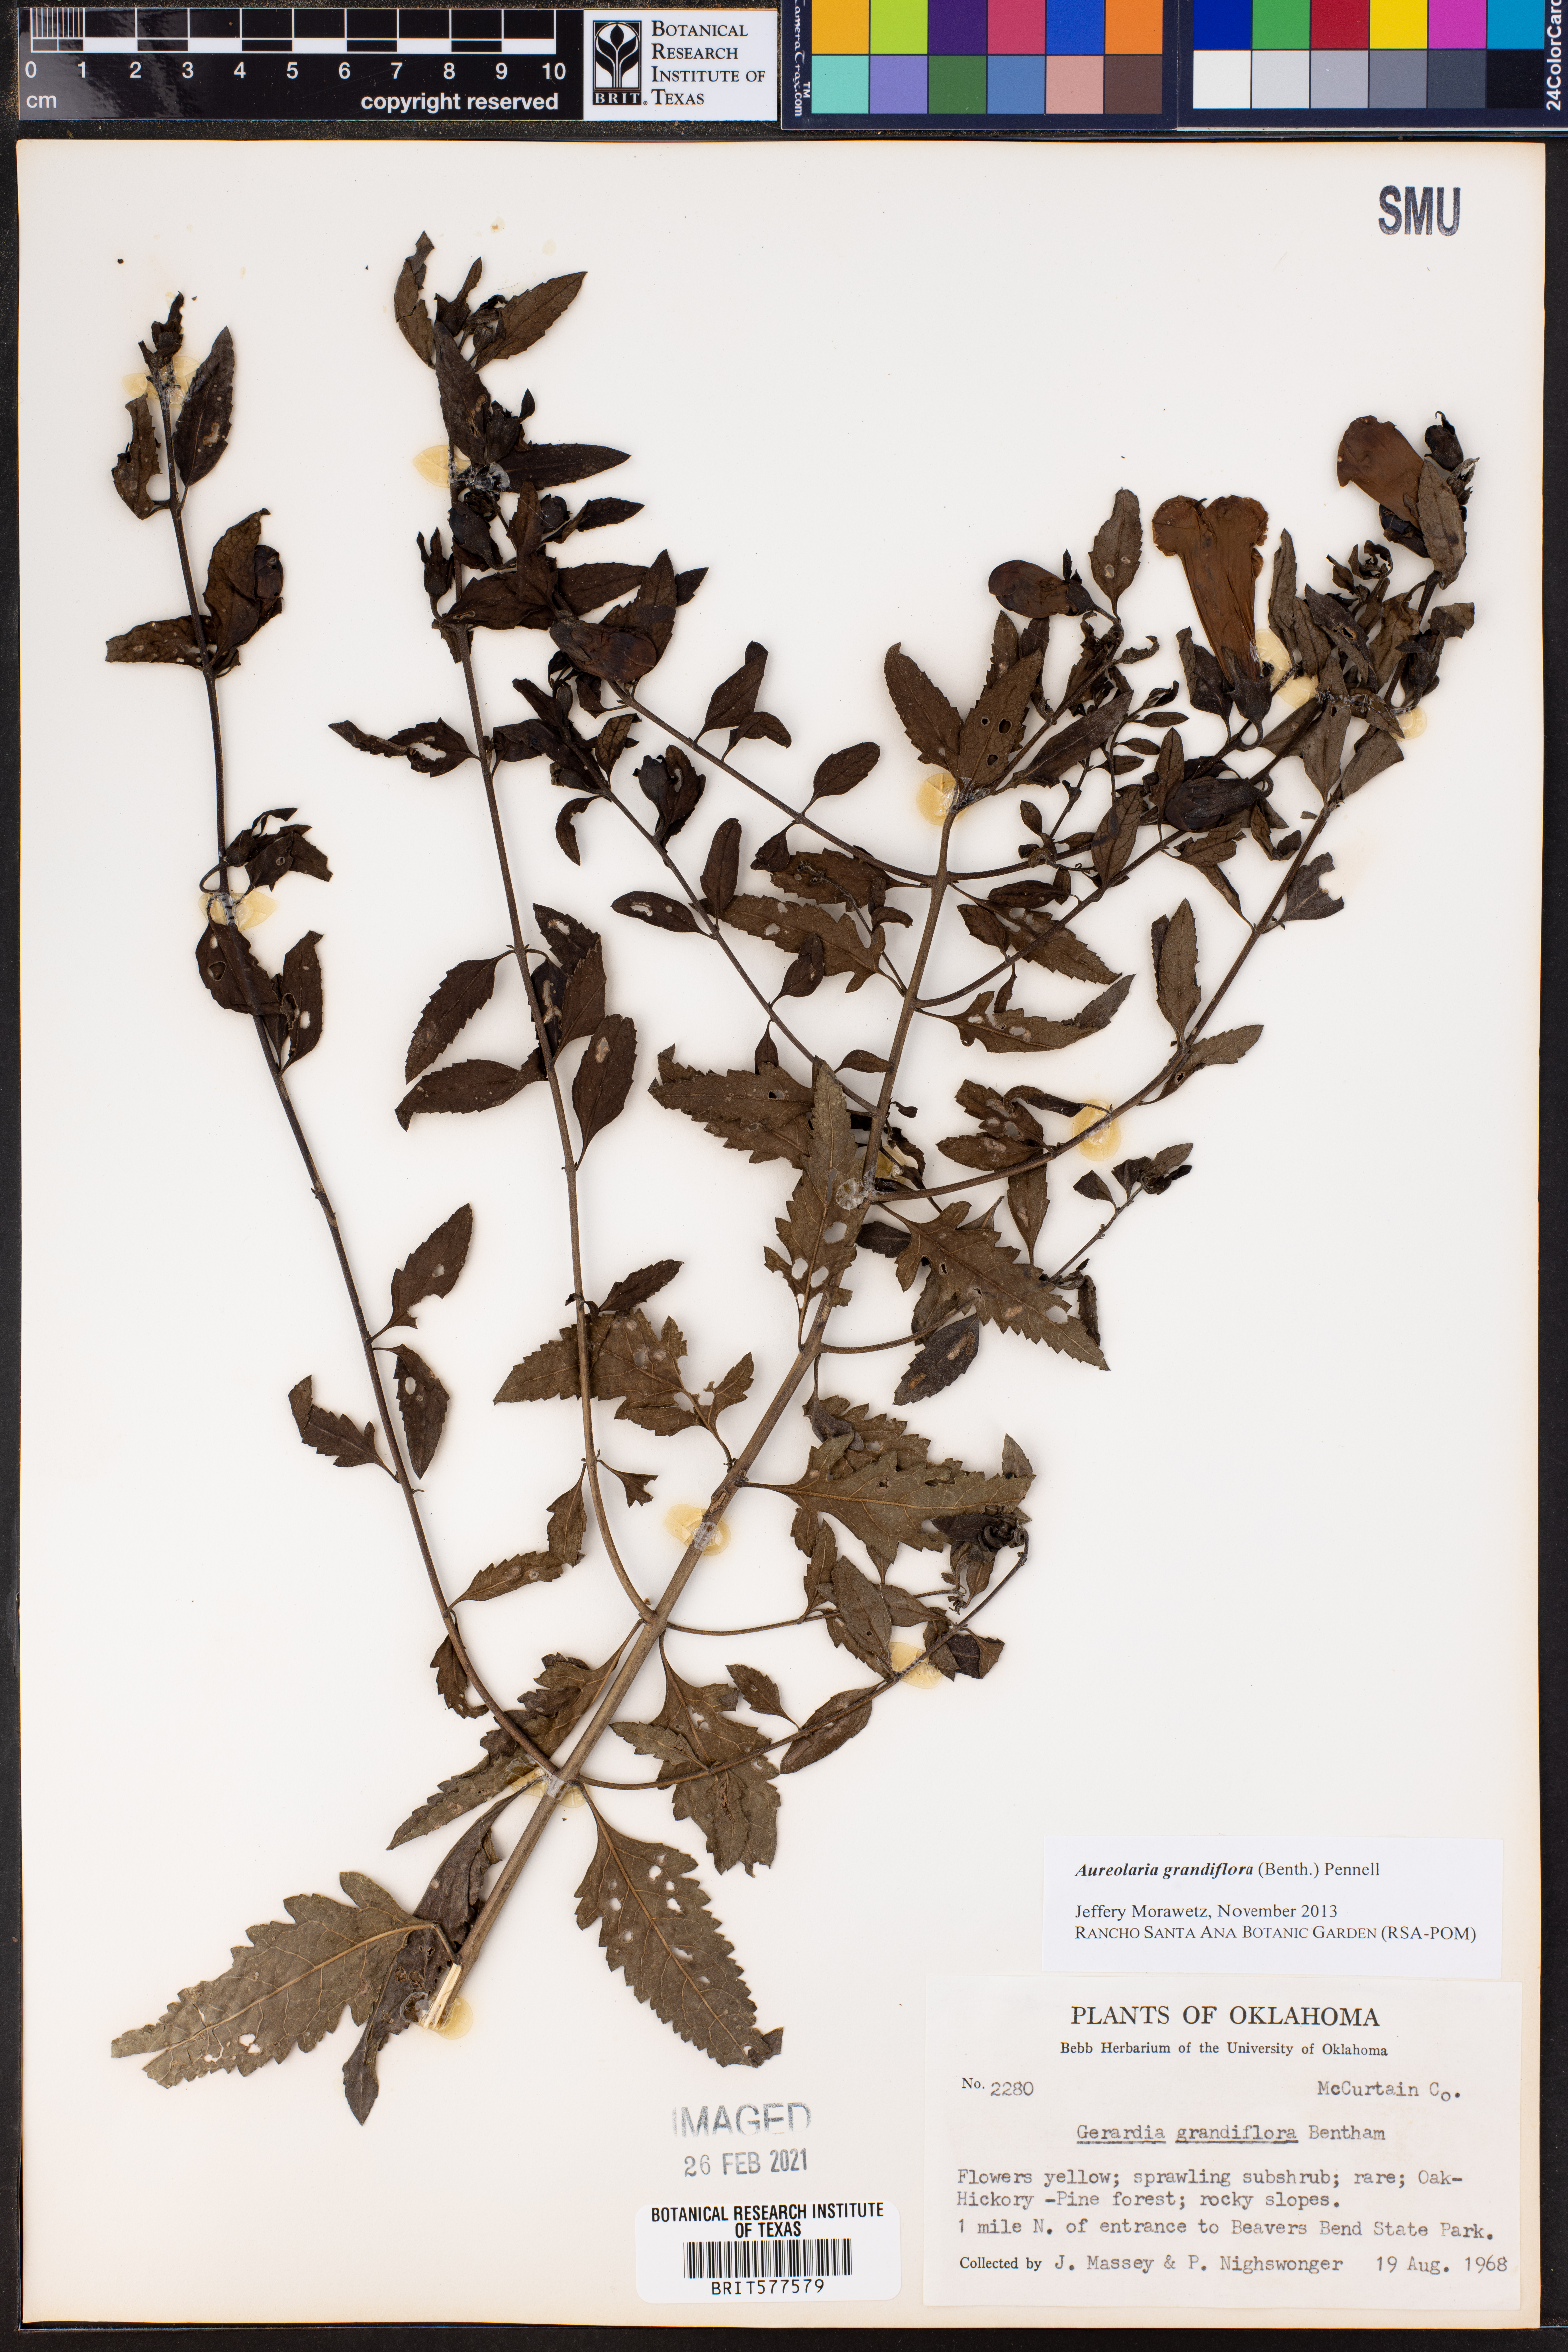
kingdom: Plantae
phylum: Tracheophyta
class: Magnoliopsida
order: Lamiales
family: Orobanchaceae
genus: Aureolaria
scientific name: Aureolaria grandiflora
